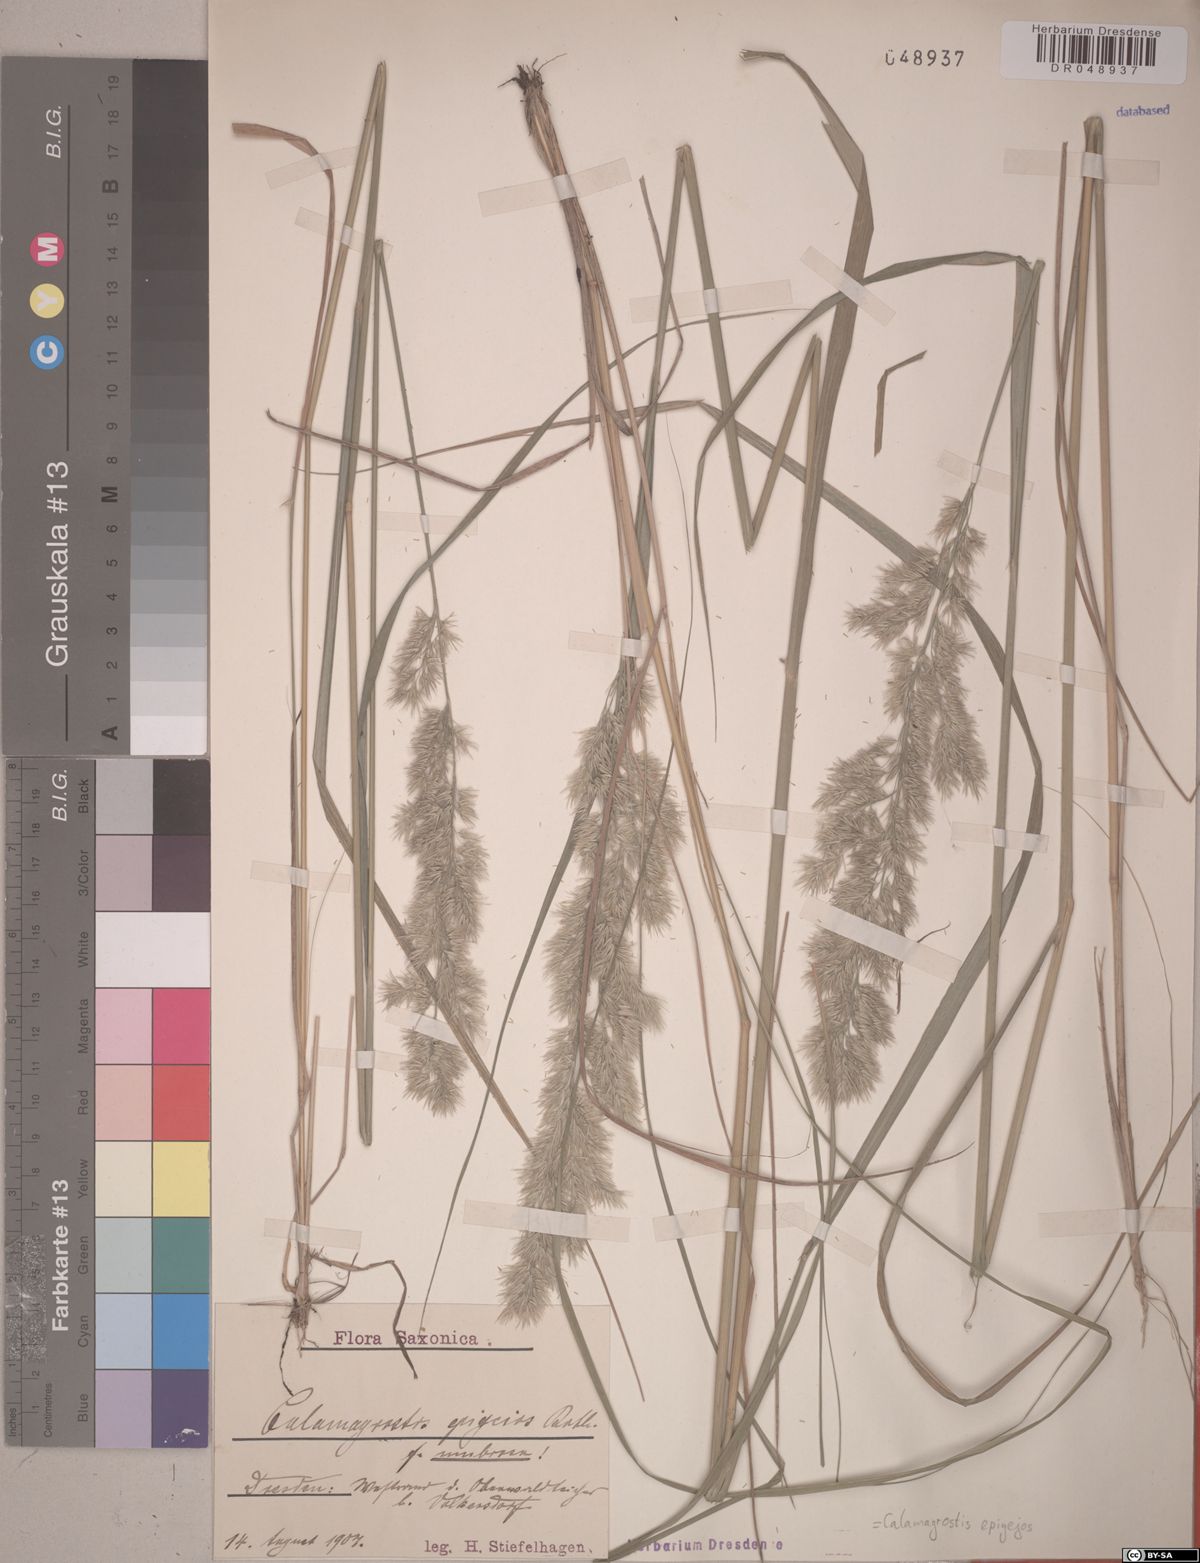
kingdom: Plantae
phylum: Tracheophyta
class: Liliopsida
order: Poales
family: Poaceae
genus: Calamagrostis
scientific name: Calamagrostis epigejos
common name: Wood small-reed
